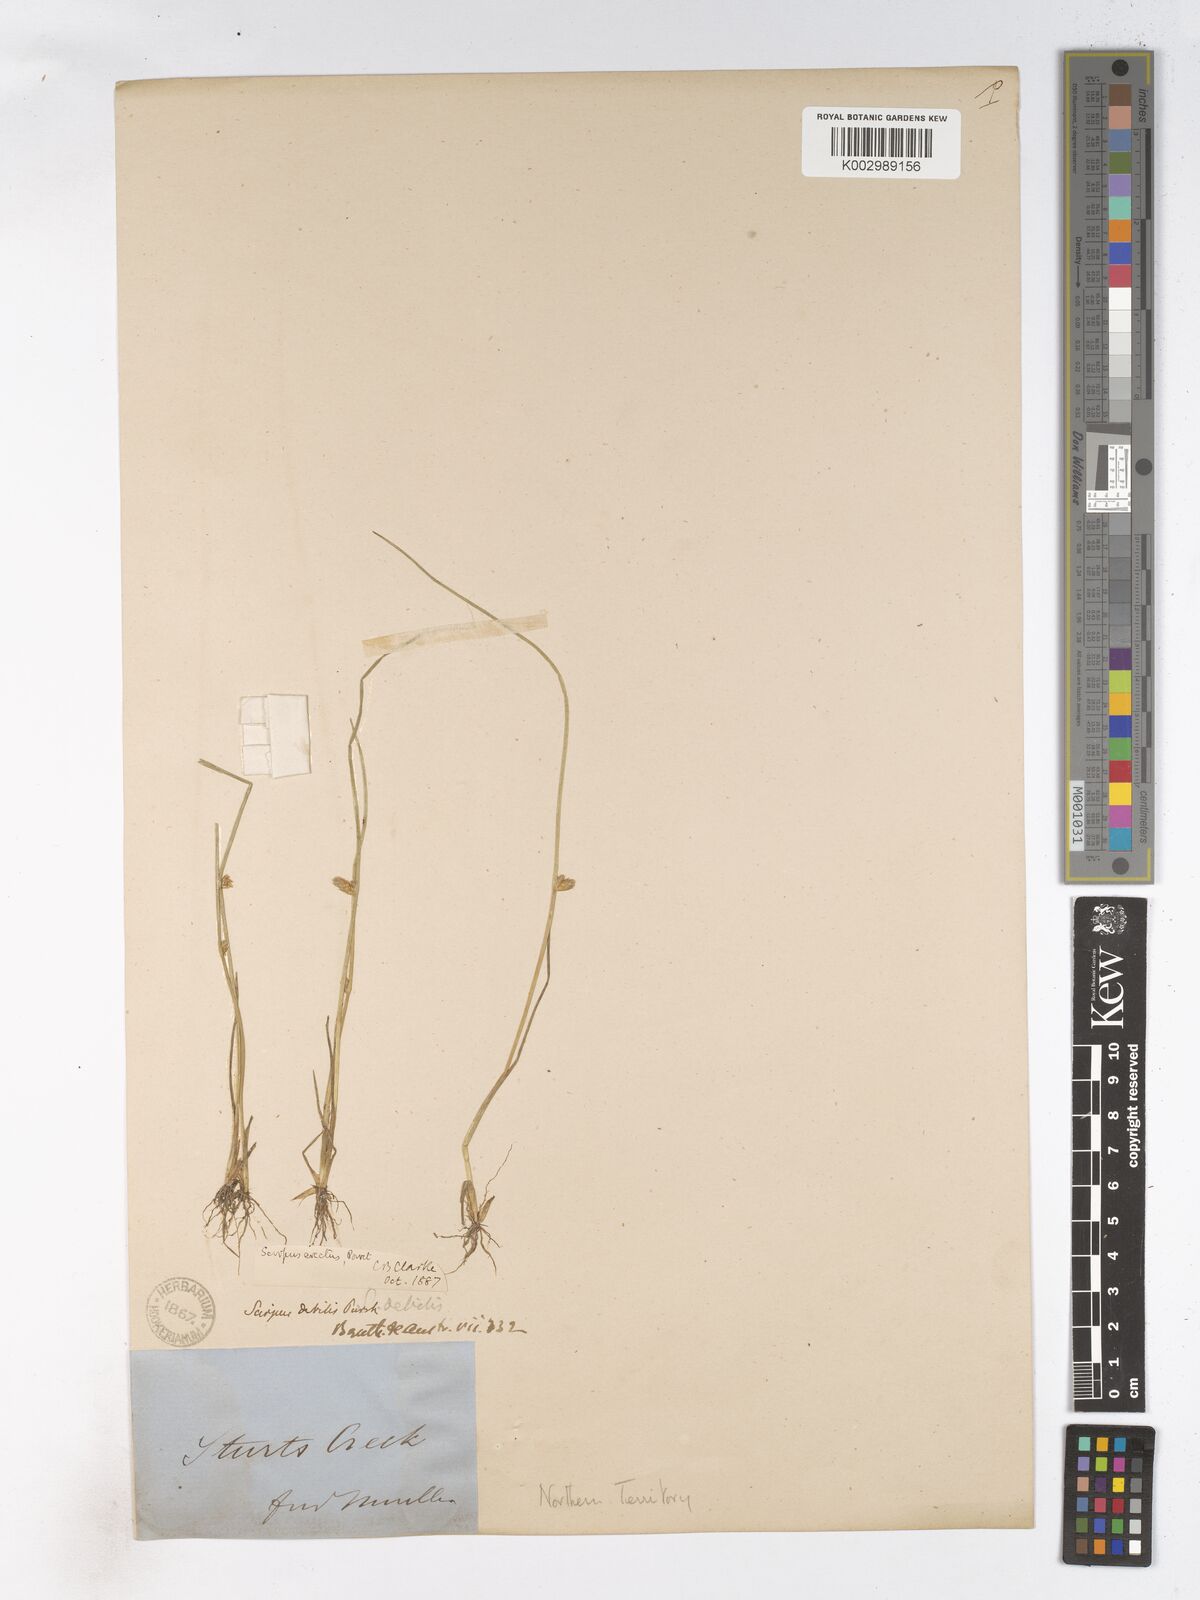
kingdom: Plantae
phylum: Tracheophyta
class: Liliopsida
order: Poales
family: Cyperaceae
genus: Schoenoplectiella
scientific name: Schoenoplectiella juncoides
